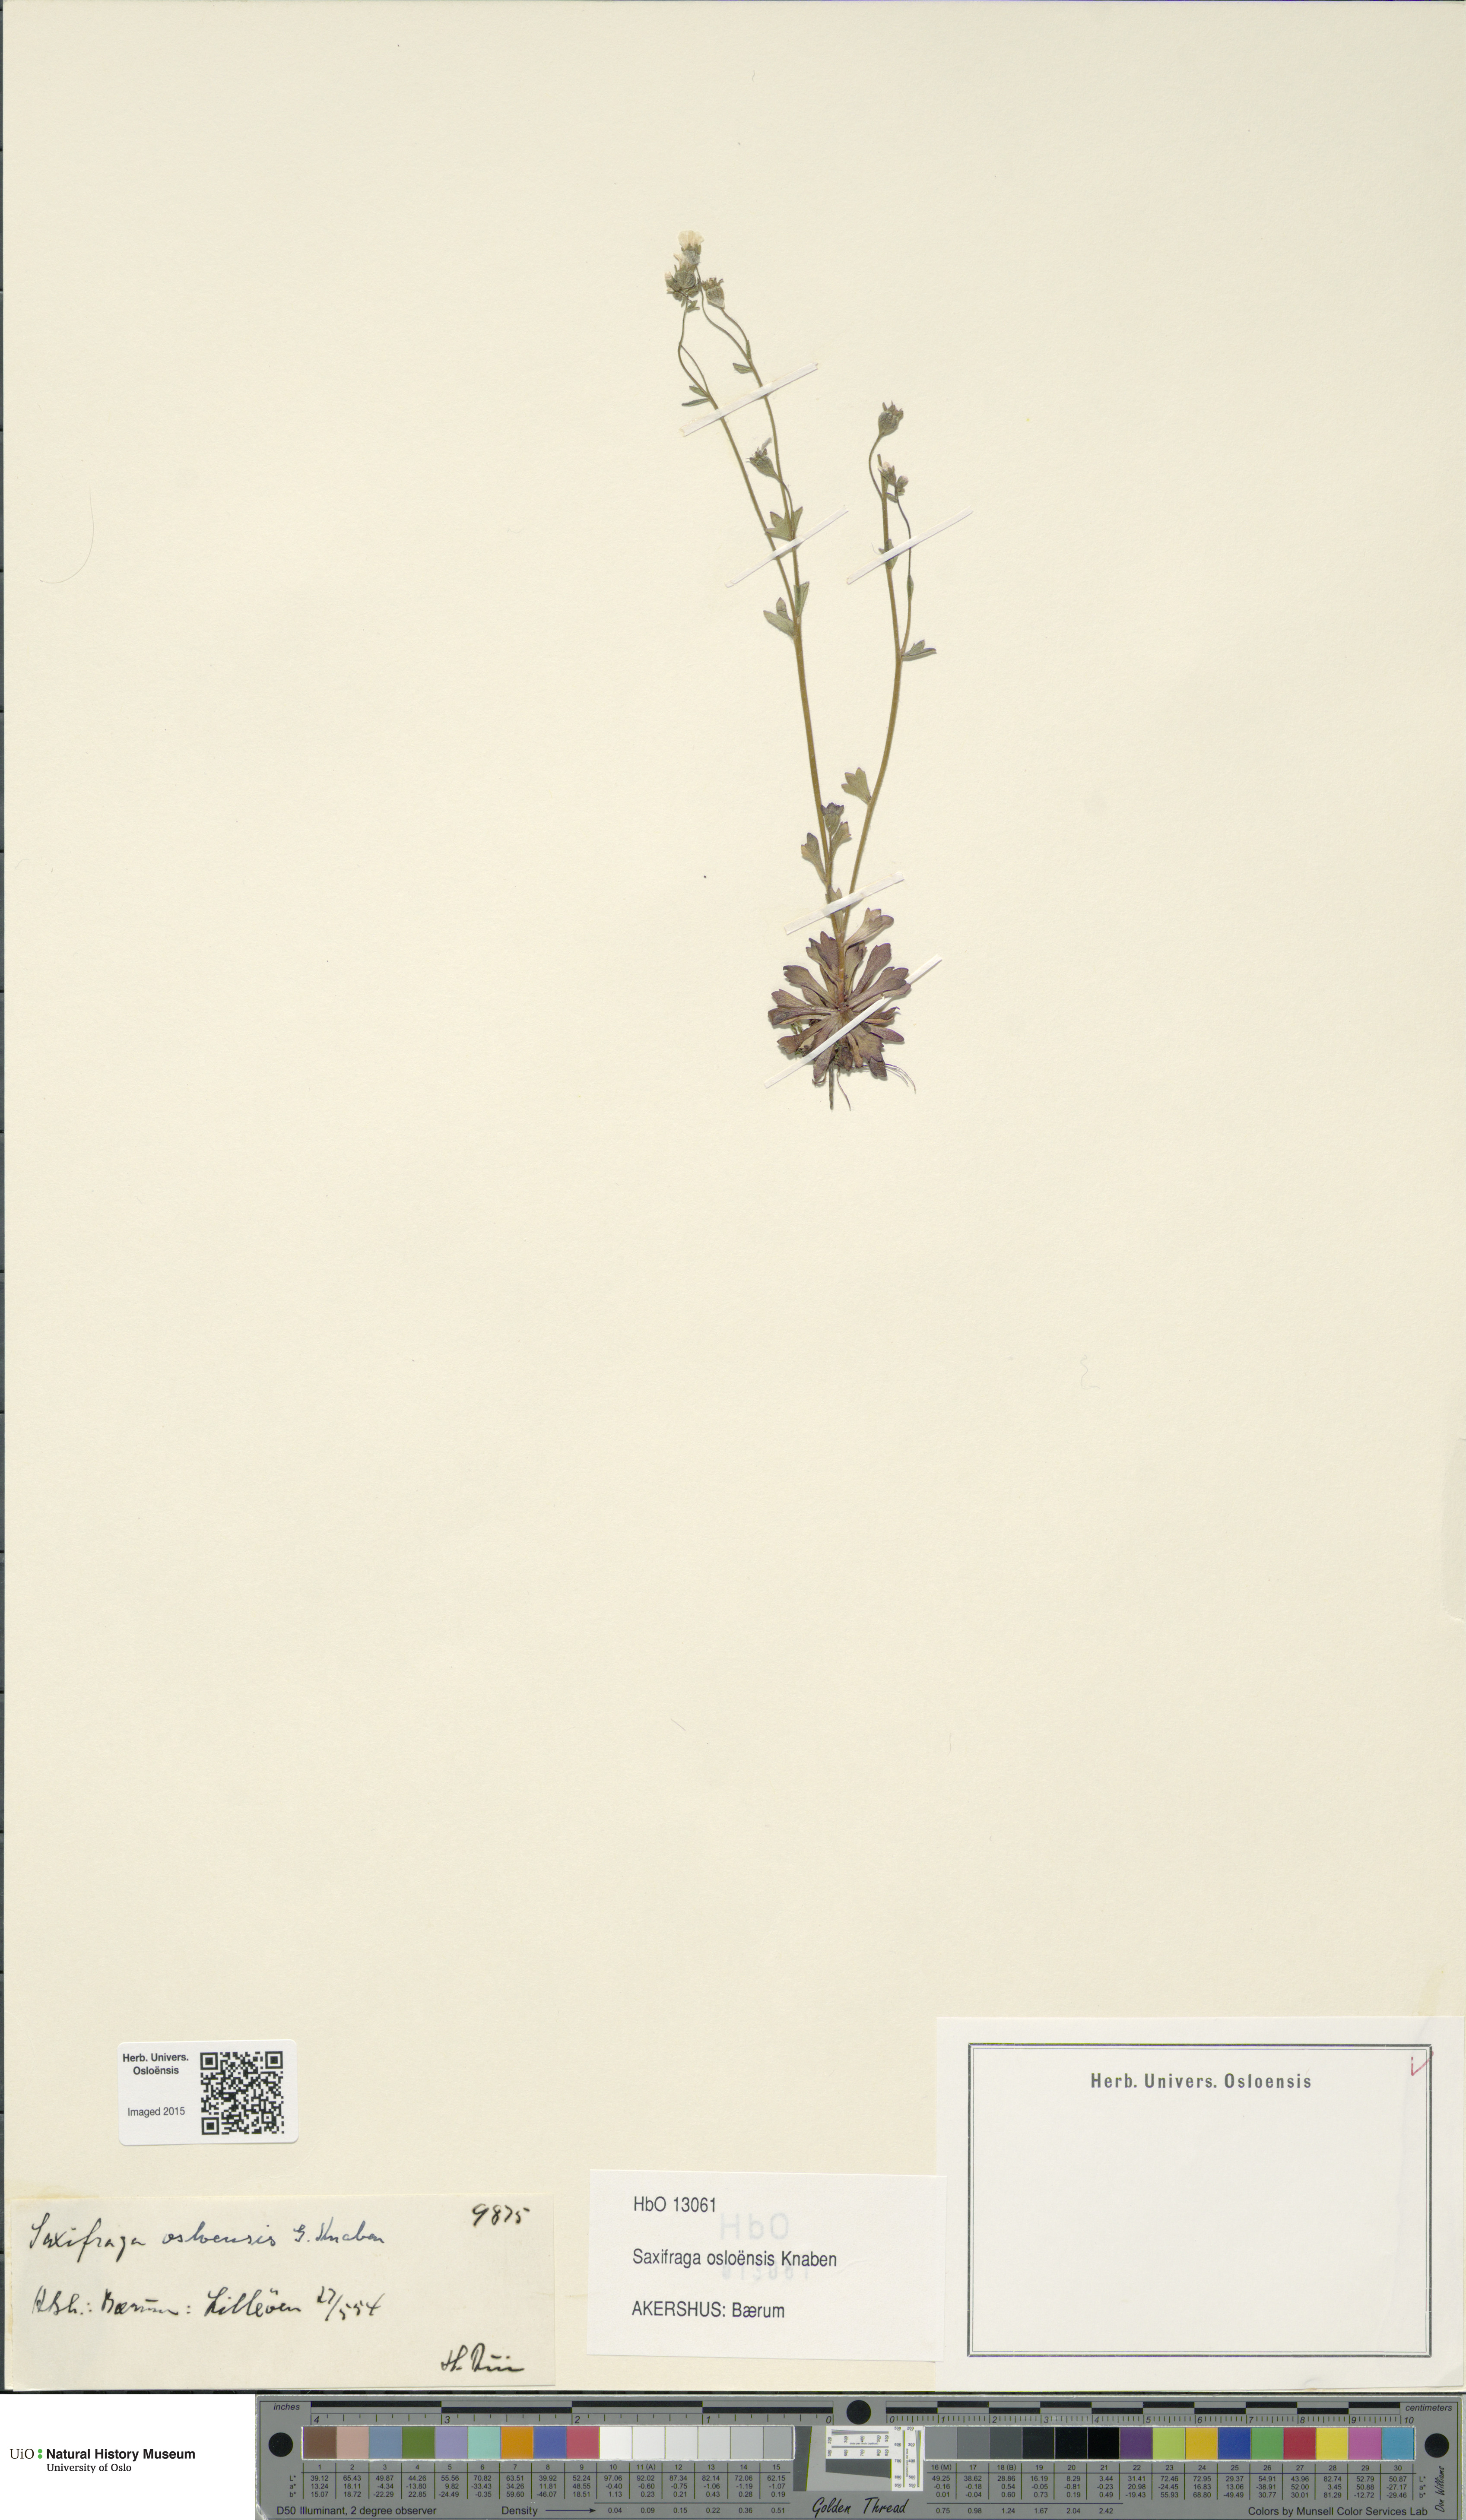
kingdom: Plantae
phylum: Tracheophyta
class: Magnoliopsida
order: Saxifragales
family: Saxifragaceae
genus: Saxifraga
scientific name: Saxifraga osloensis
